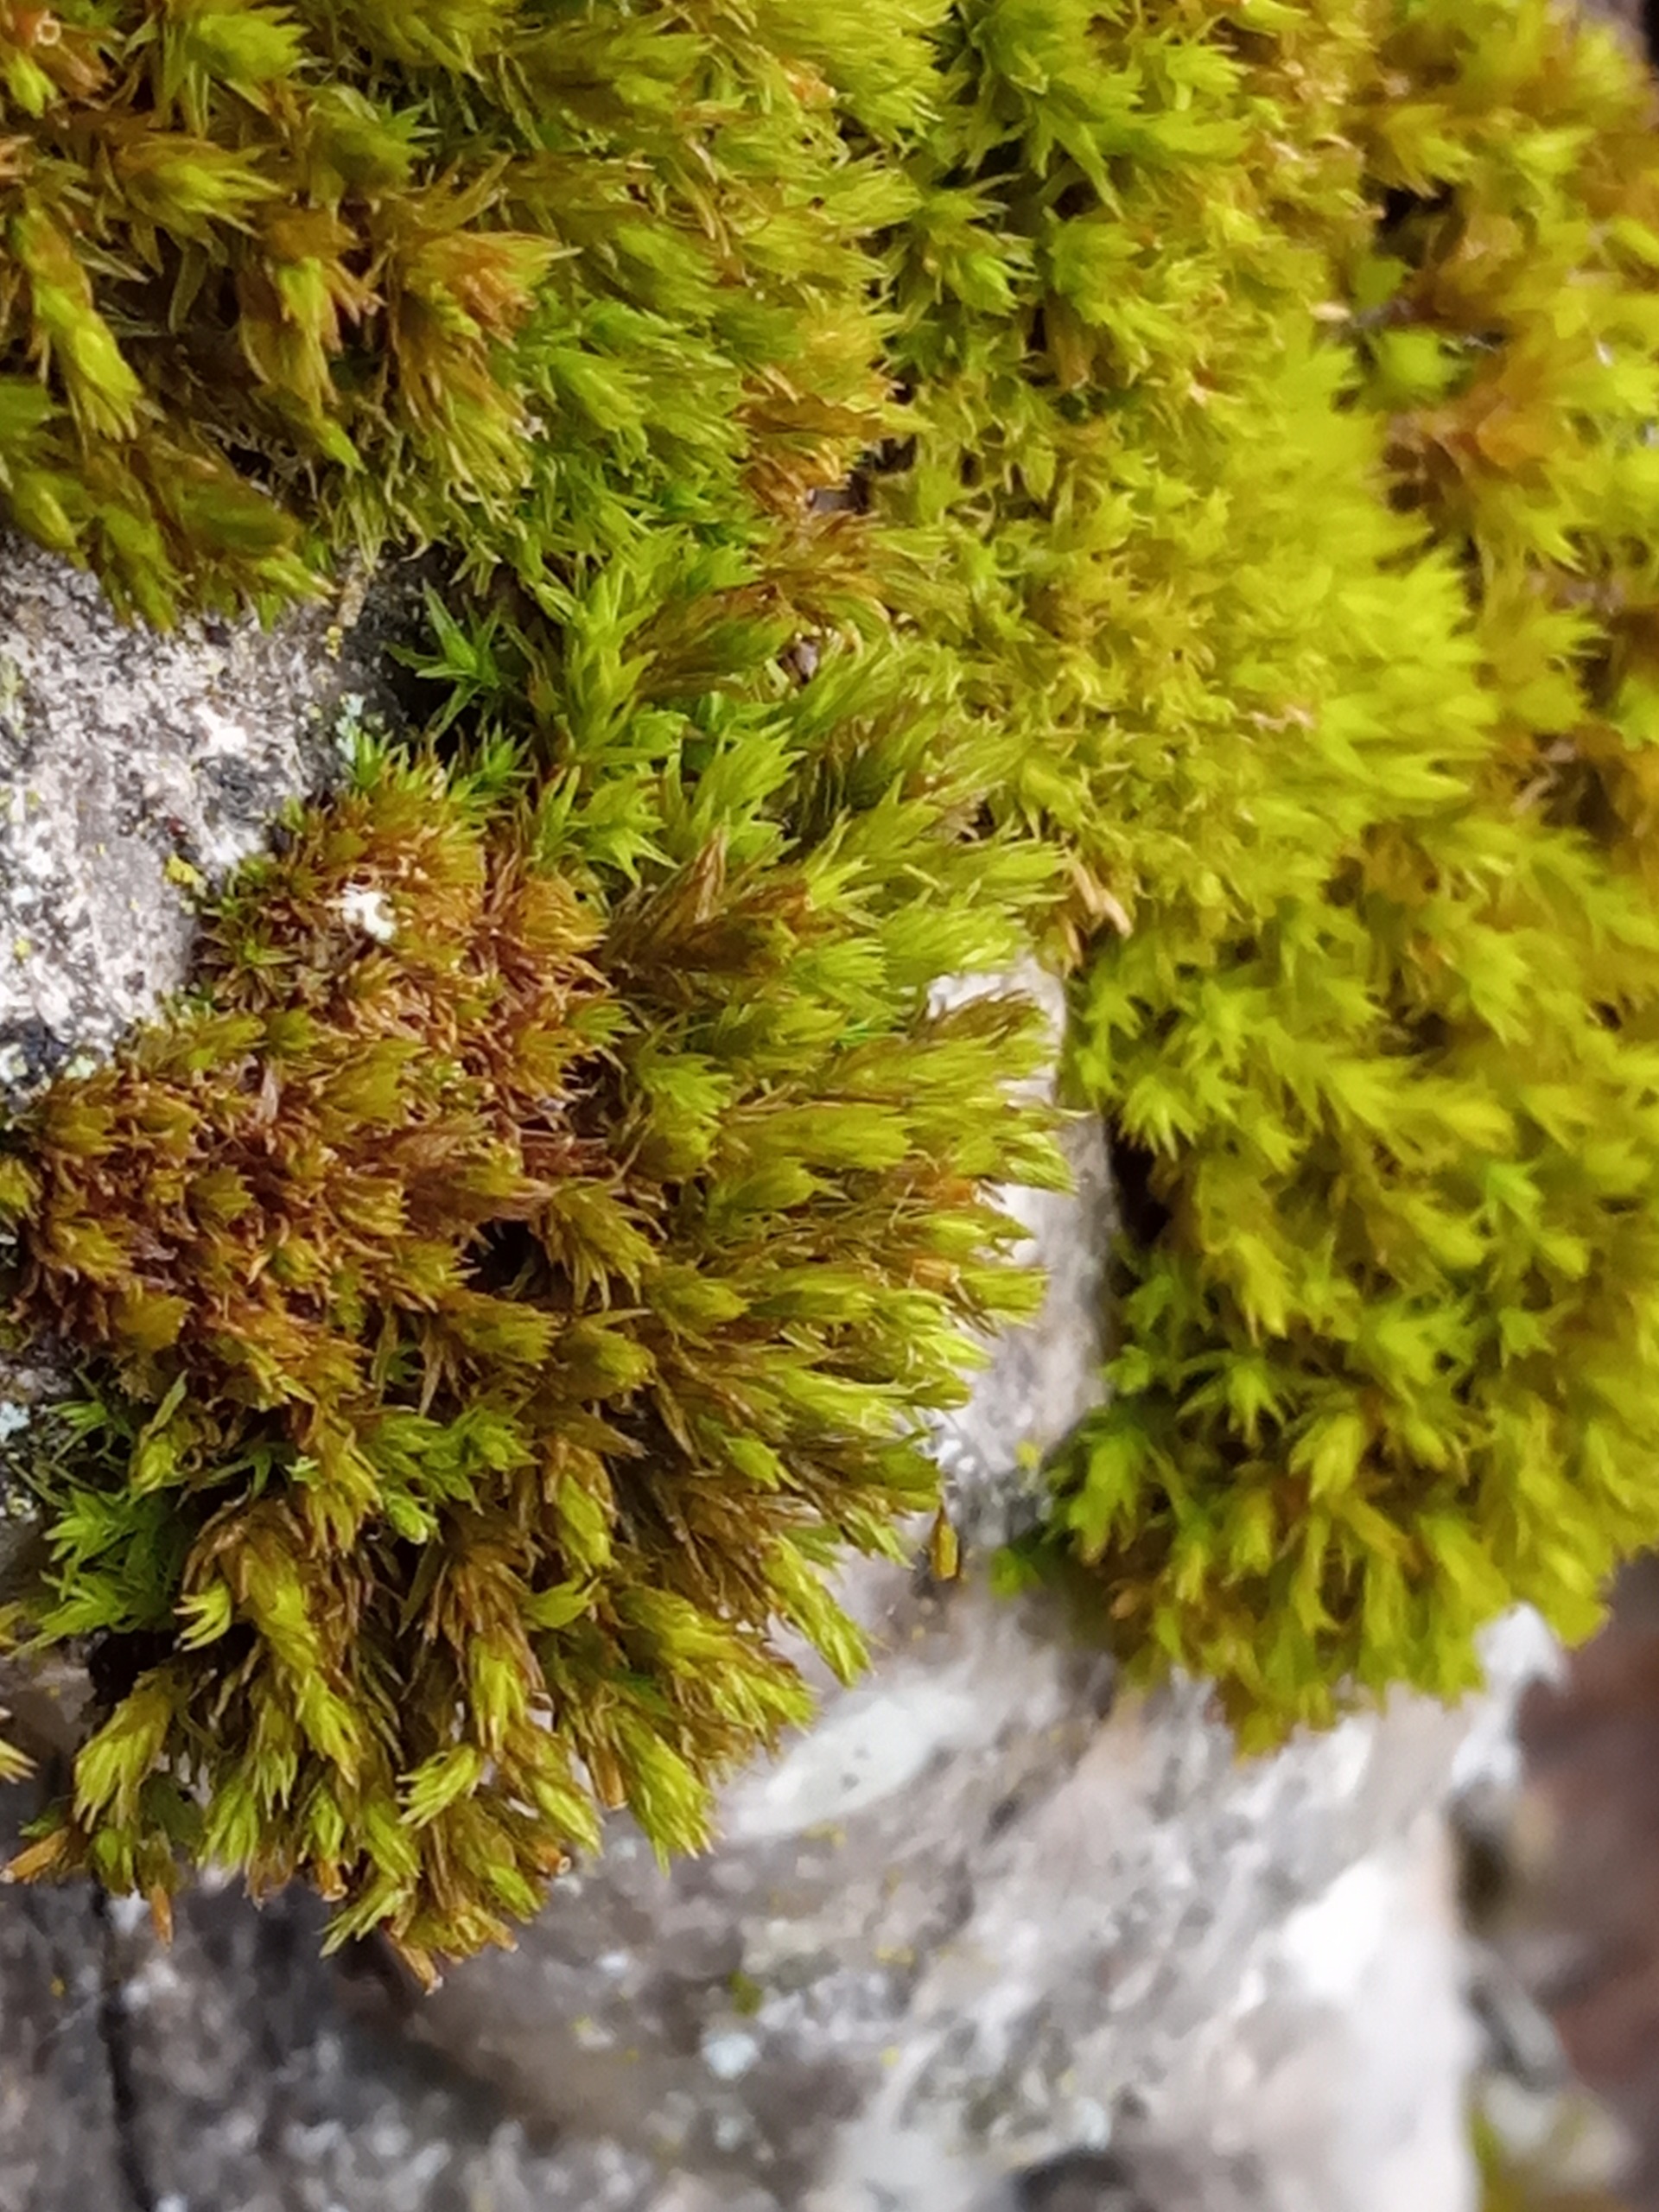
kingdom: Plantae
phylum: Bryophyta
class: Bryopsida
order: Orthotrichales
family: Orthotrichaceae
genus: Orthotrichum
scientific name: Orthotrichum
